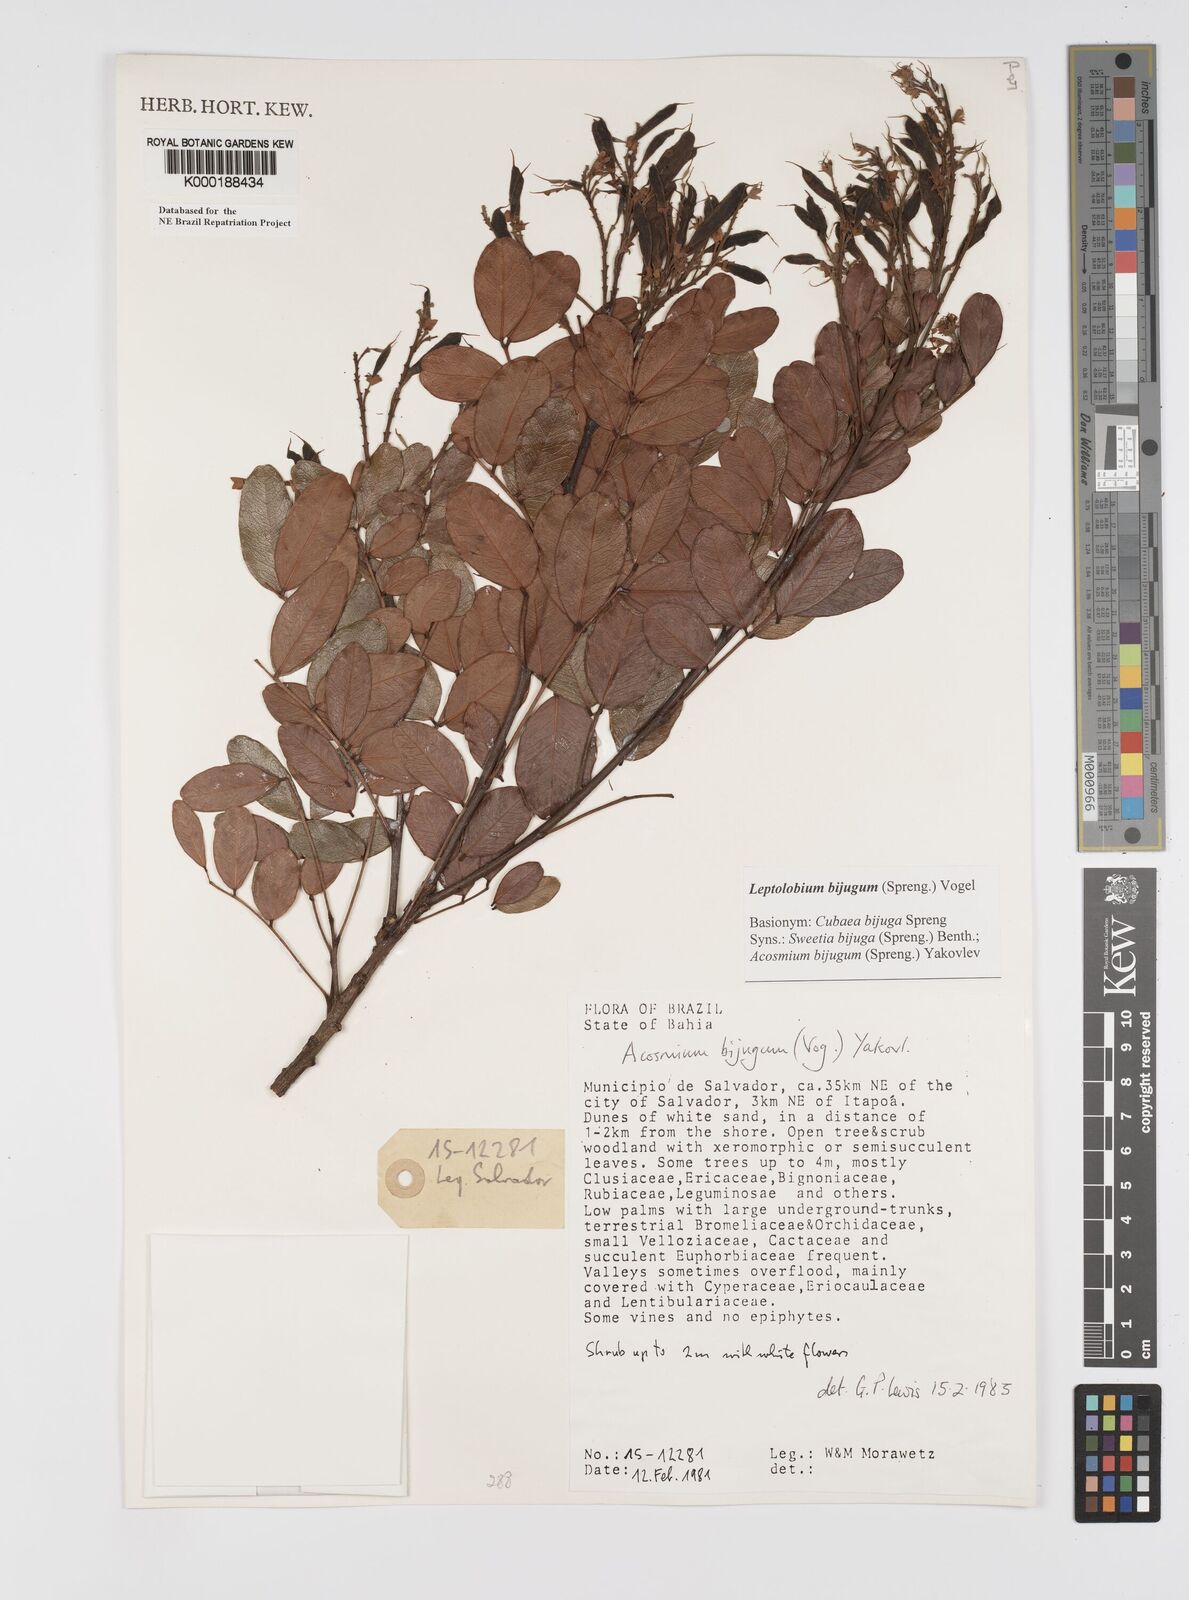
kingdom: Plantae
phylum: Tracheophyta
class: Magnoliopsida
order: Fabales
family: Fabaceae
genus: Leptolobium
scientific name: Leptolobium bijugum
